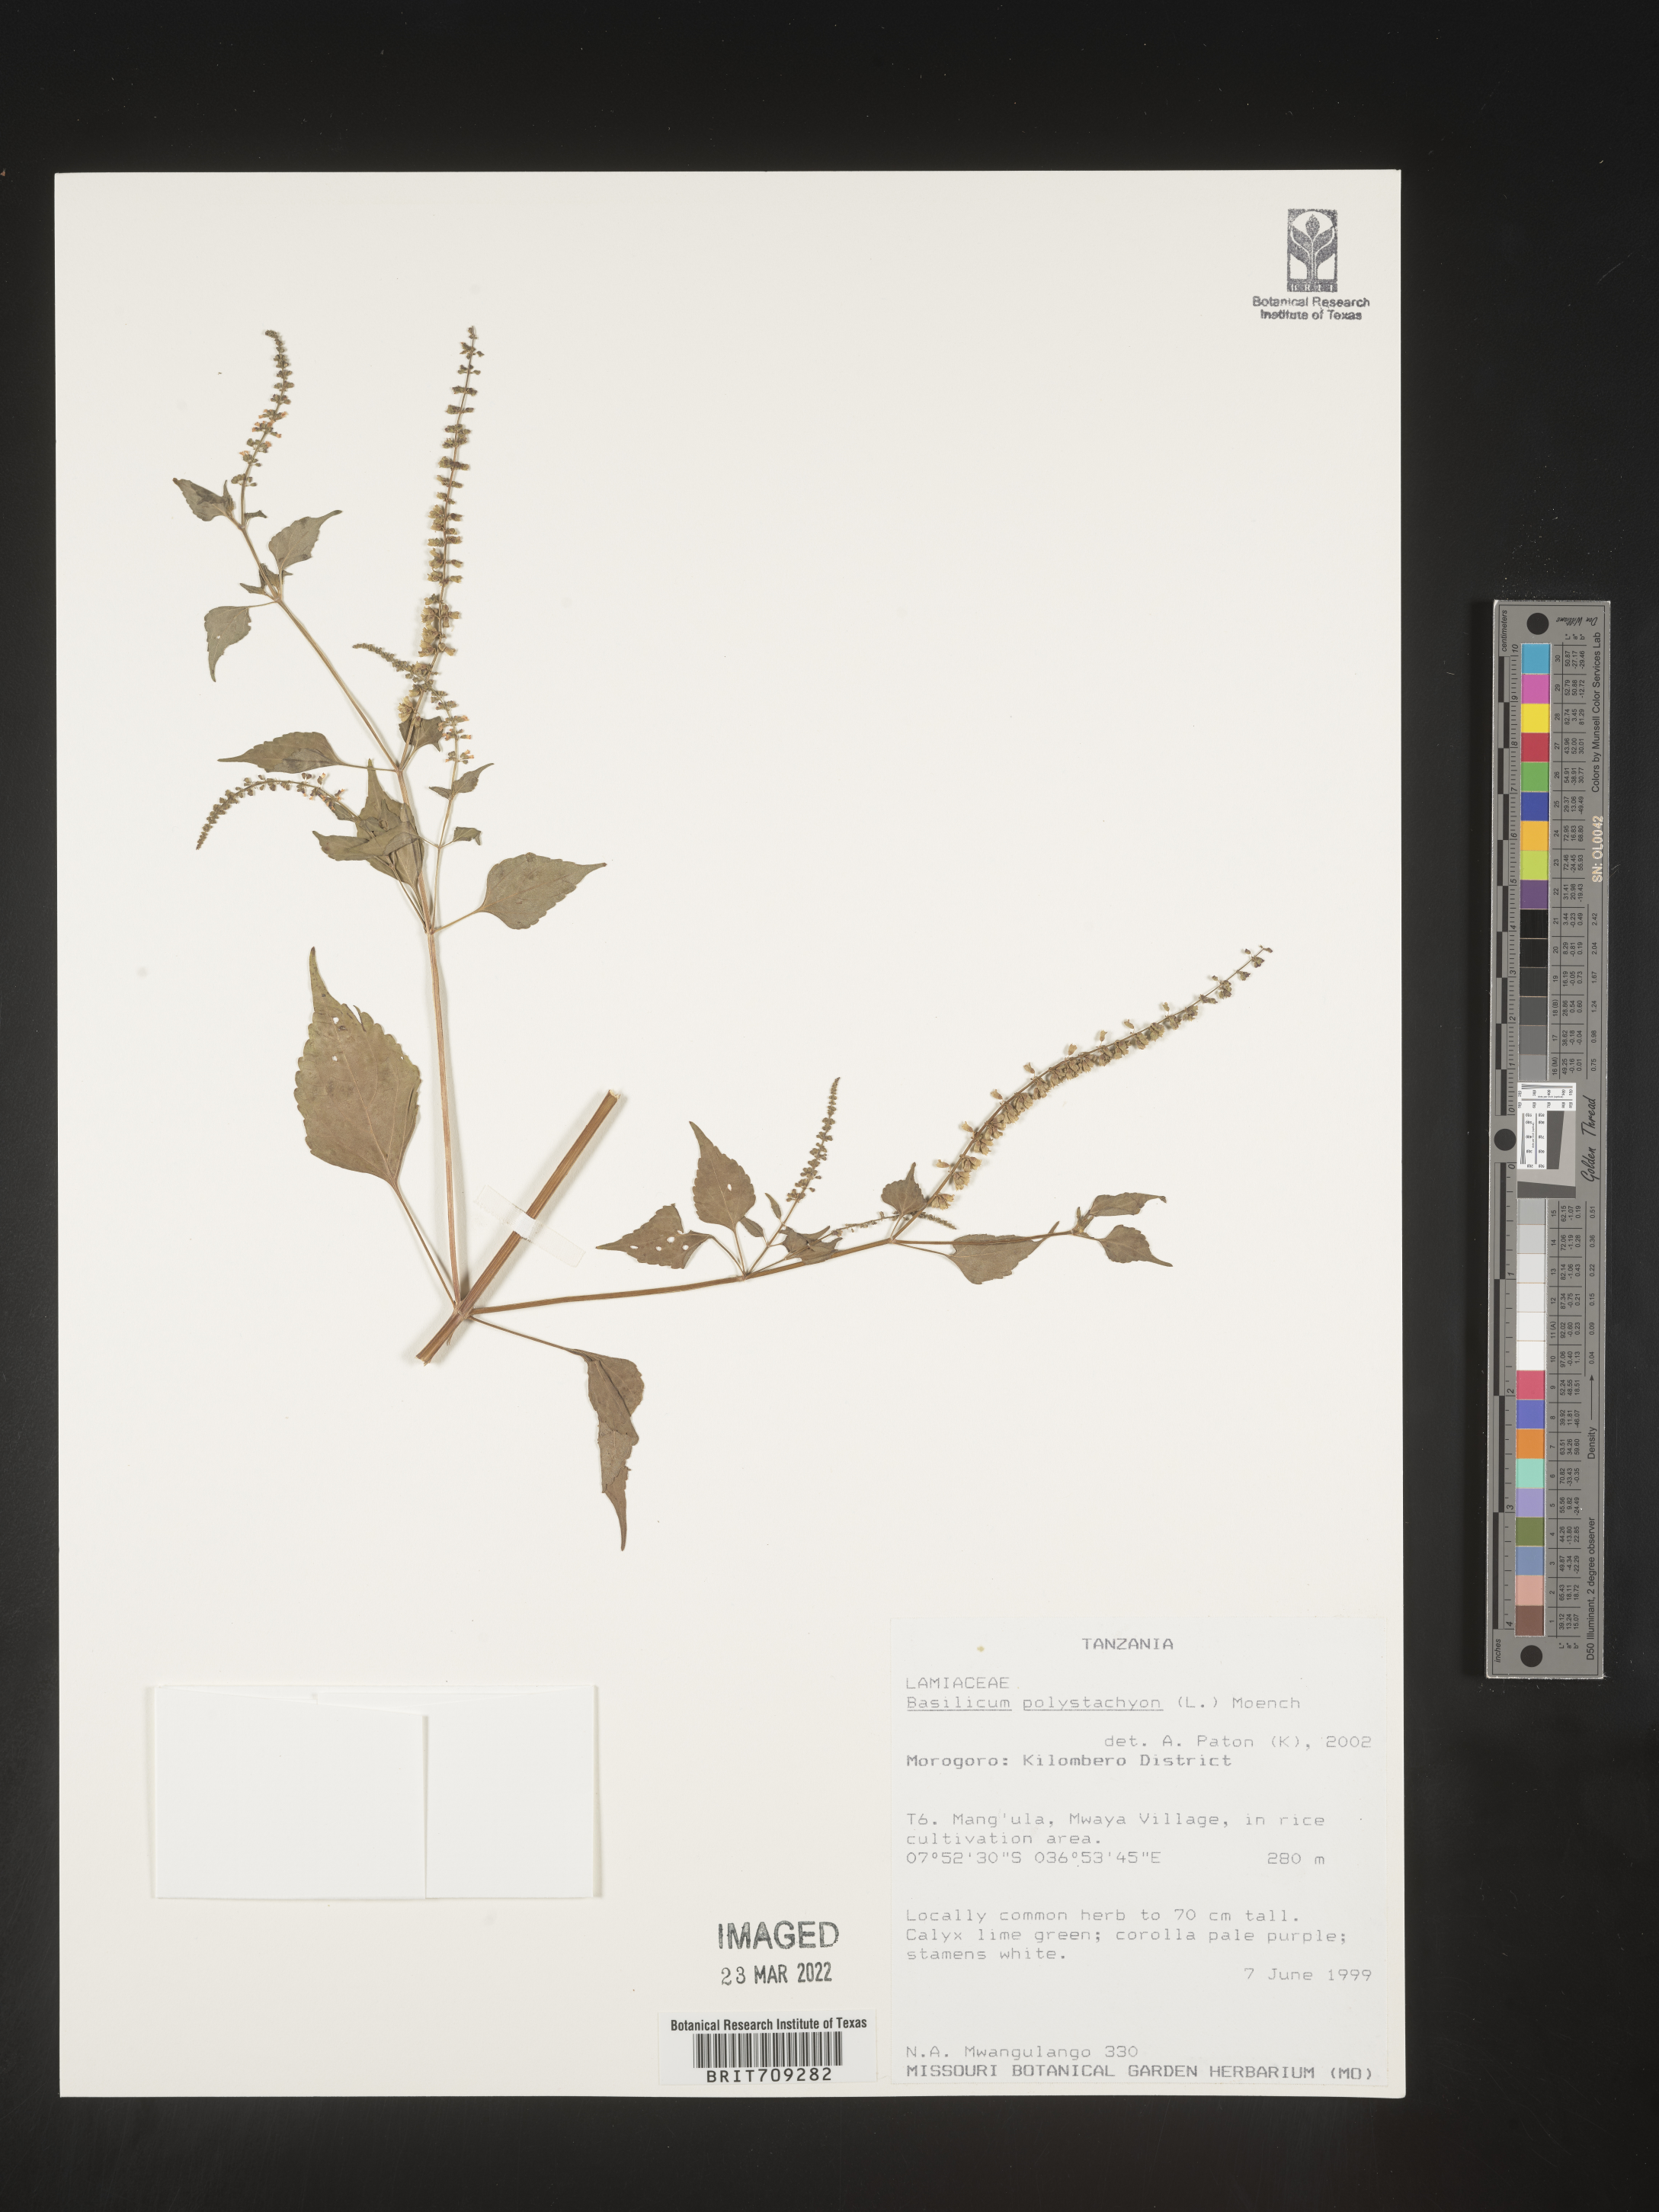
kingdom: Plantae
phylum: Tracheophyta
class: Magnoliopsida
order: Lamiales
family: Lamiaceae
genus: Basilicum
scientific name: Basilicum
